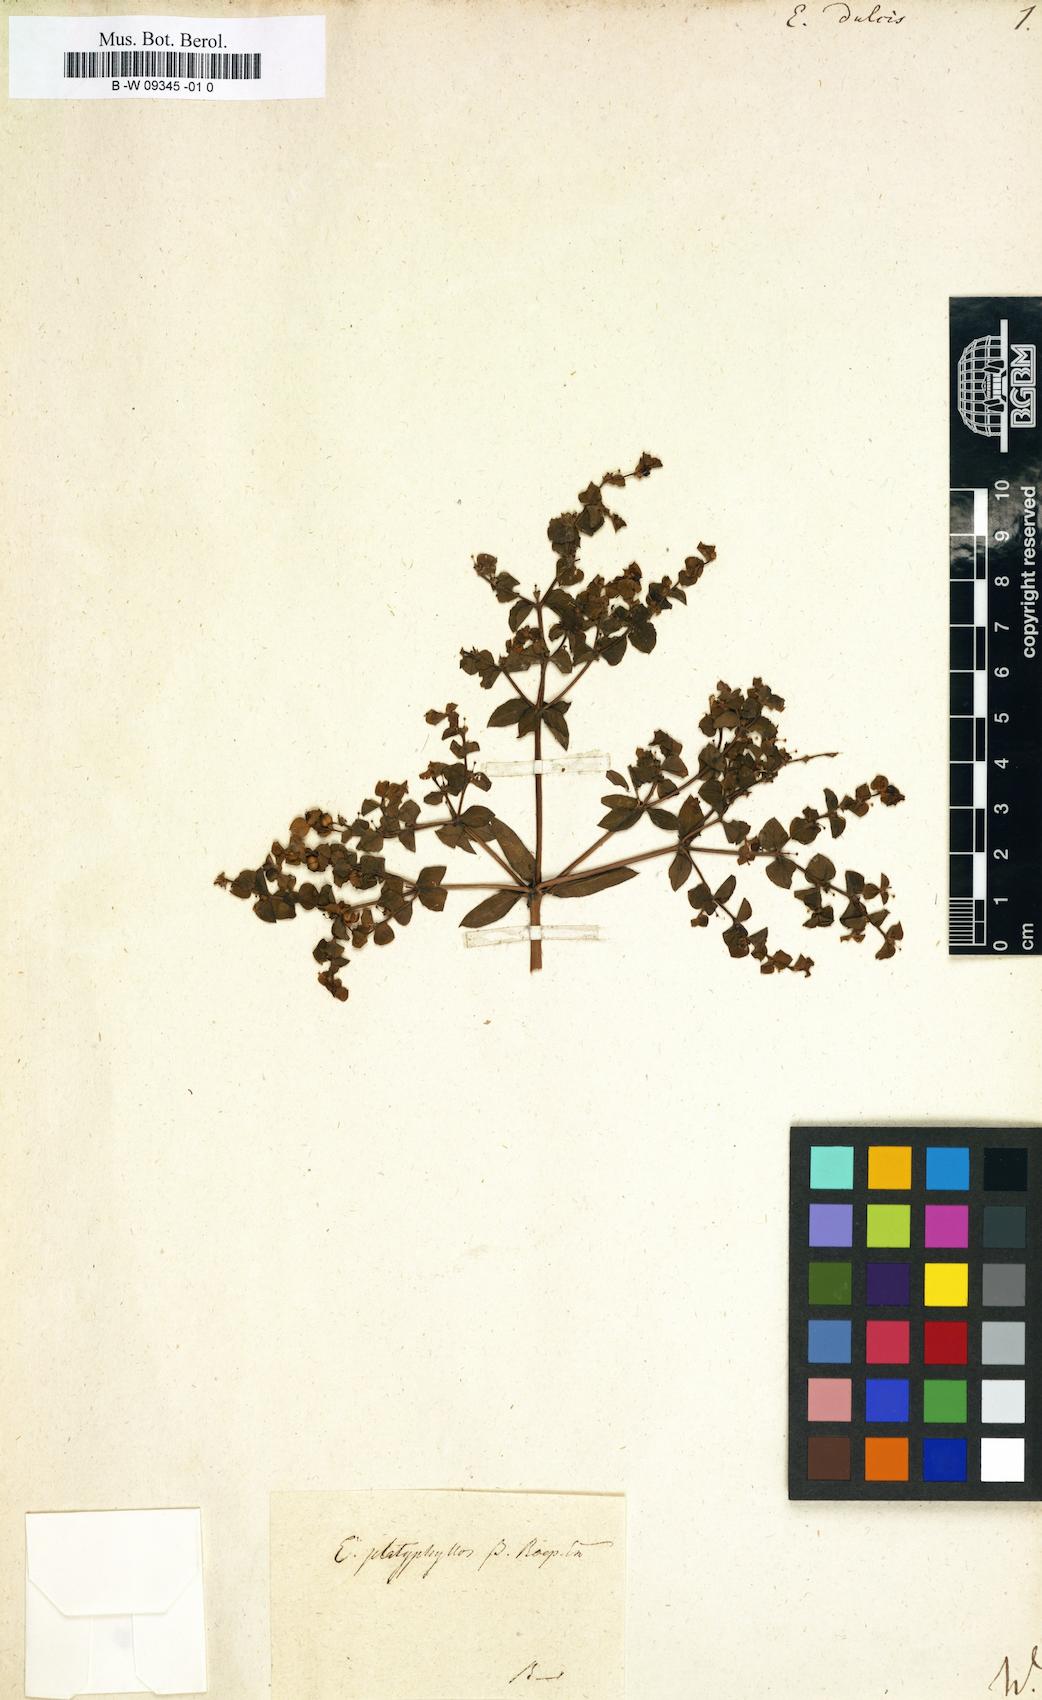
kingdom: Plantae
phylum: Tracheophyta
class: Magnoliopsida
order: Malpighiales
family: Euphorbiaceae
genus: Euphorbia
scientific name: Euphorbia dulcis
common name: Sweet spurge
